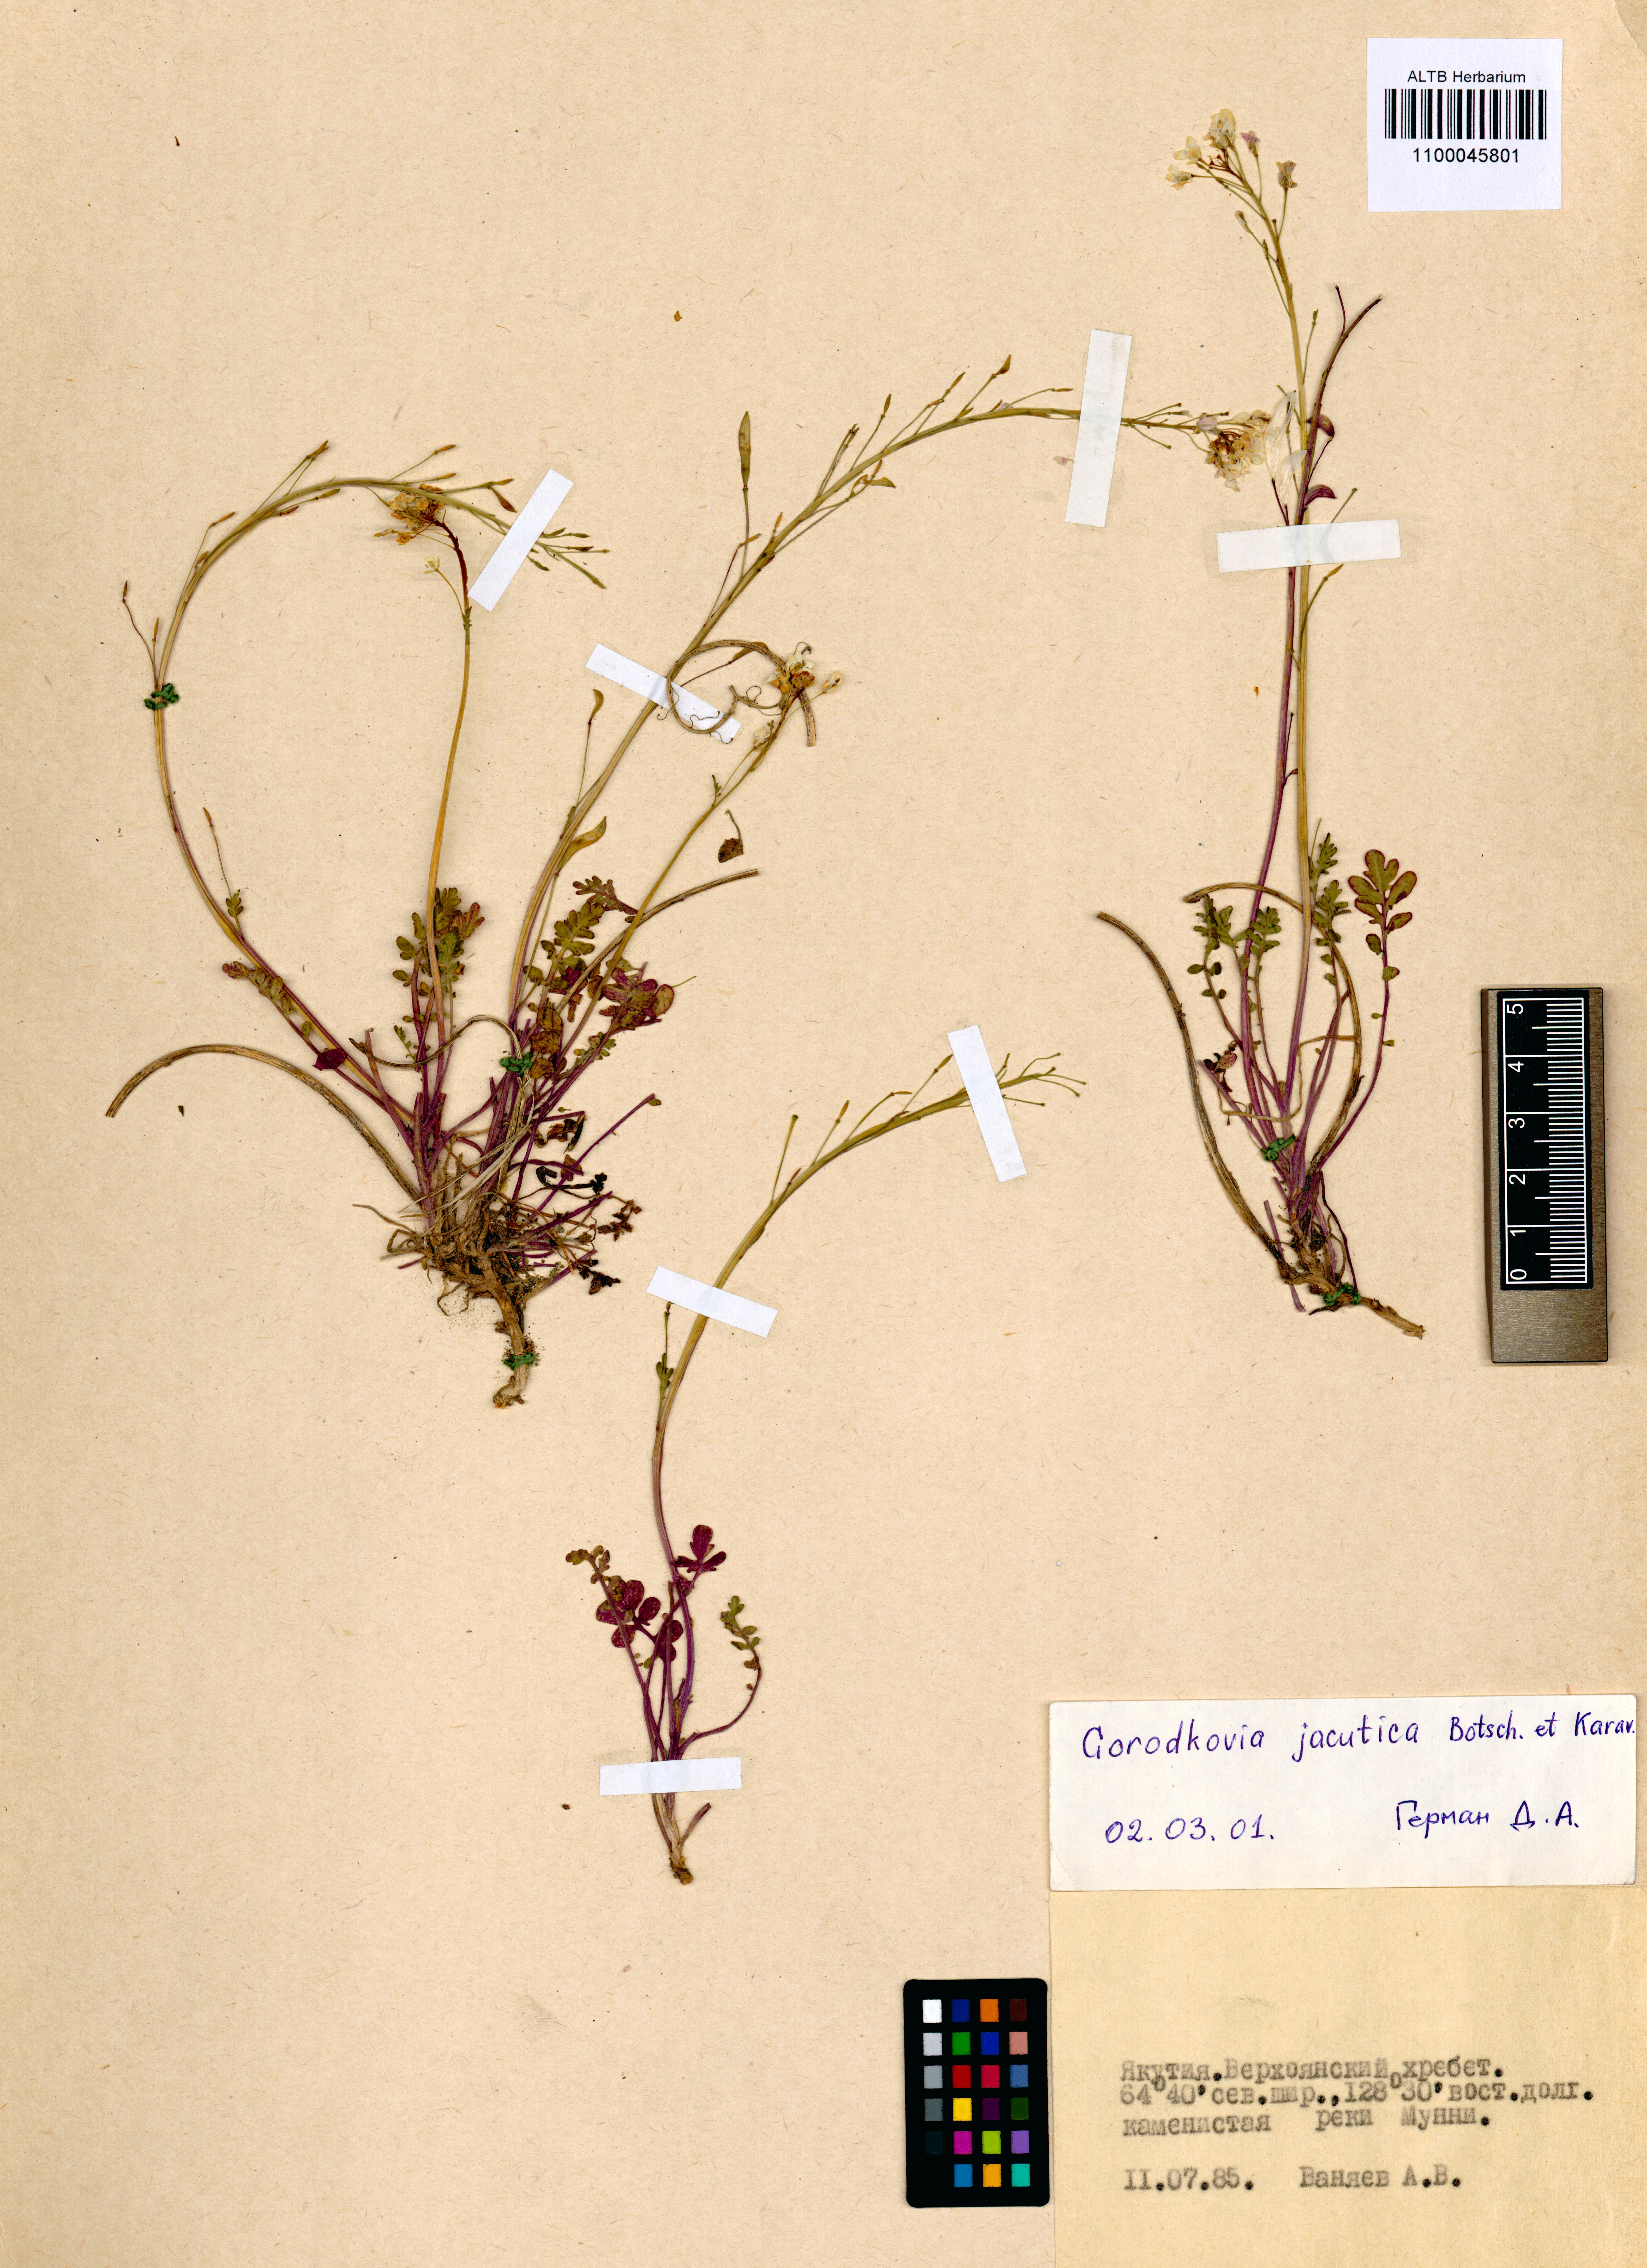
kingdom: Plantae
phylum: Tracheophyta
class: Magnoliopsida
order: Brassicales
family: Brassicaceae
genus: Smelowskia
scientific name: Smelowskia jacutica
